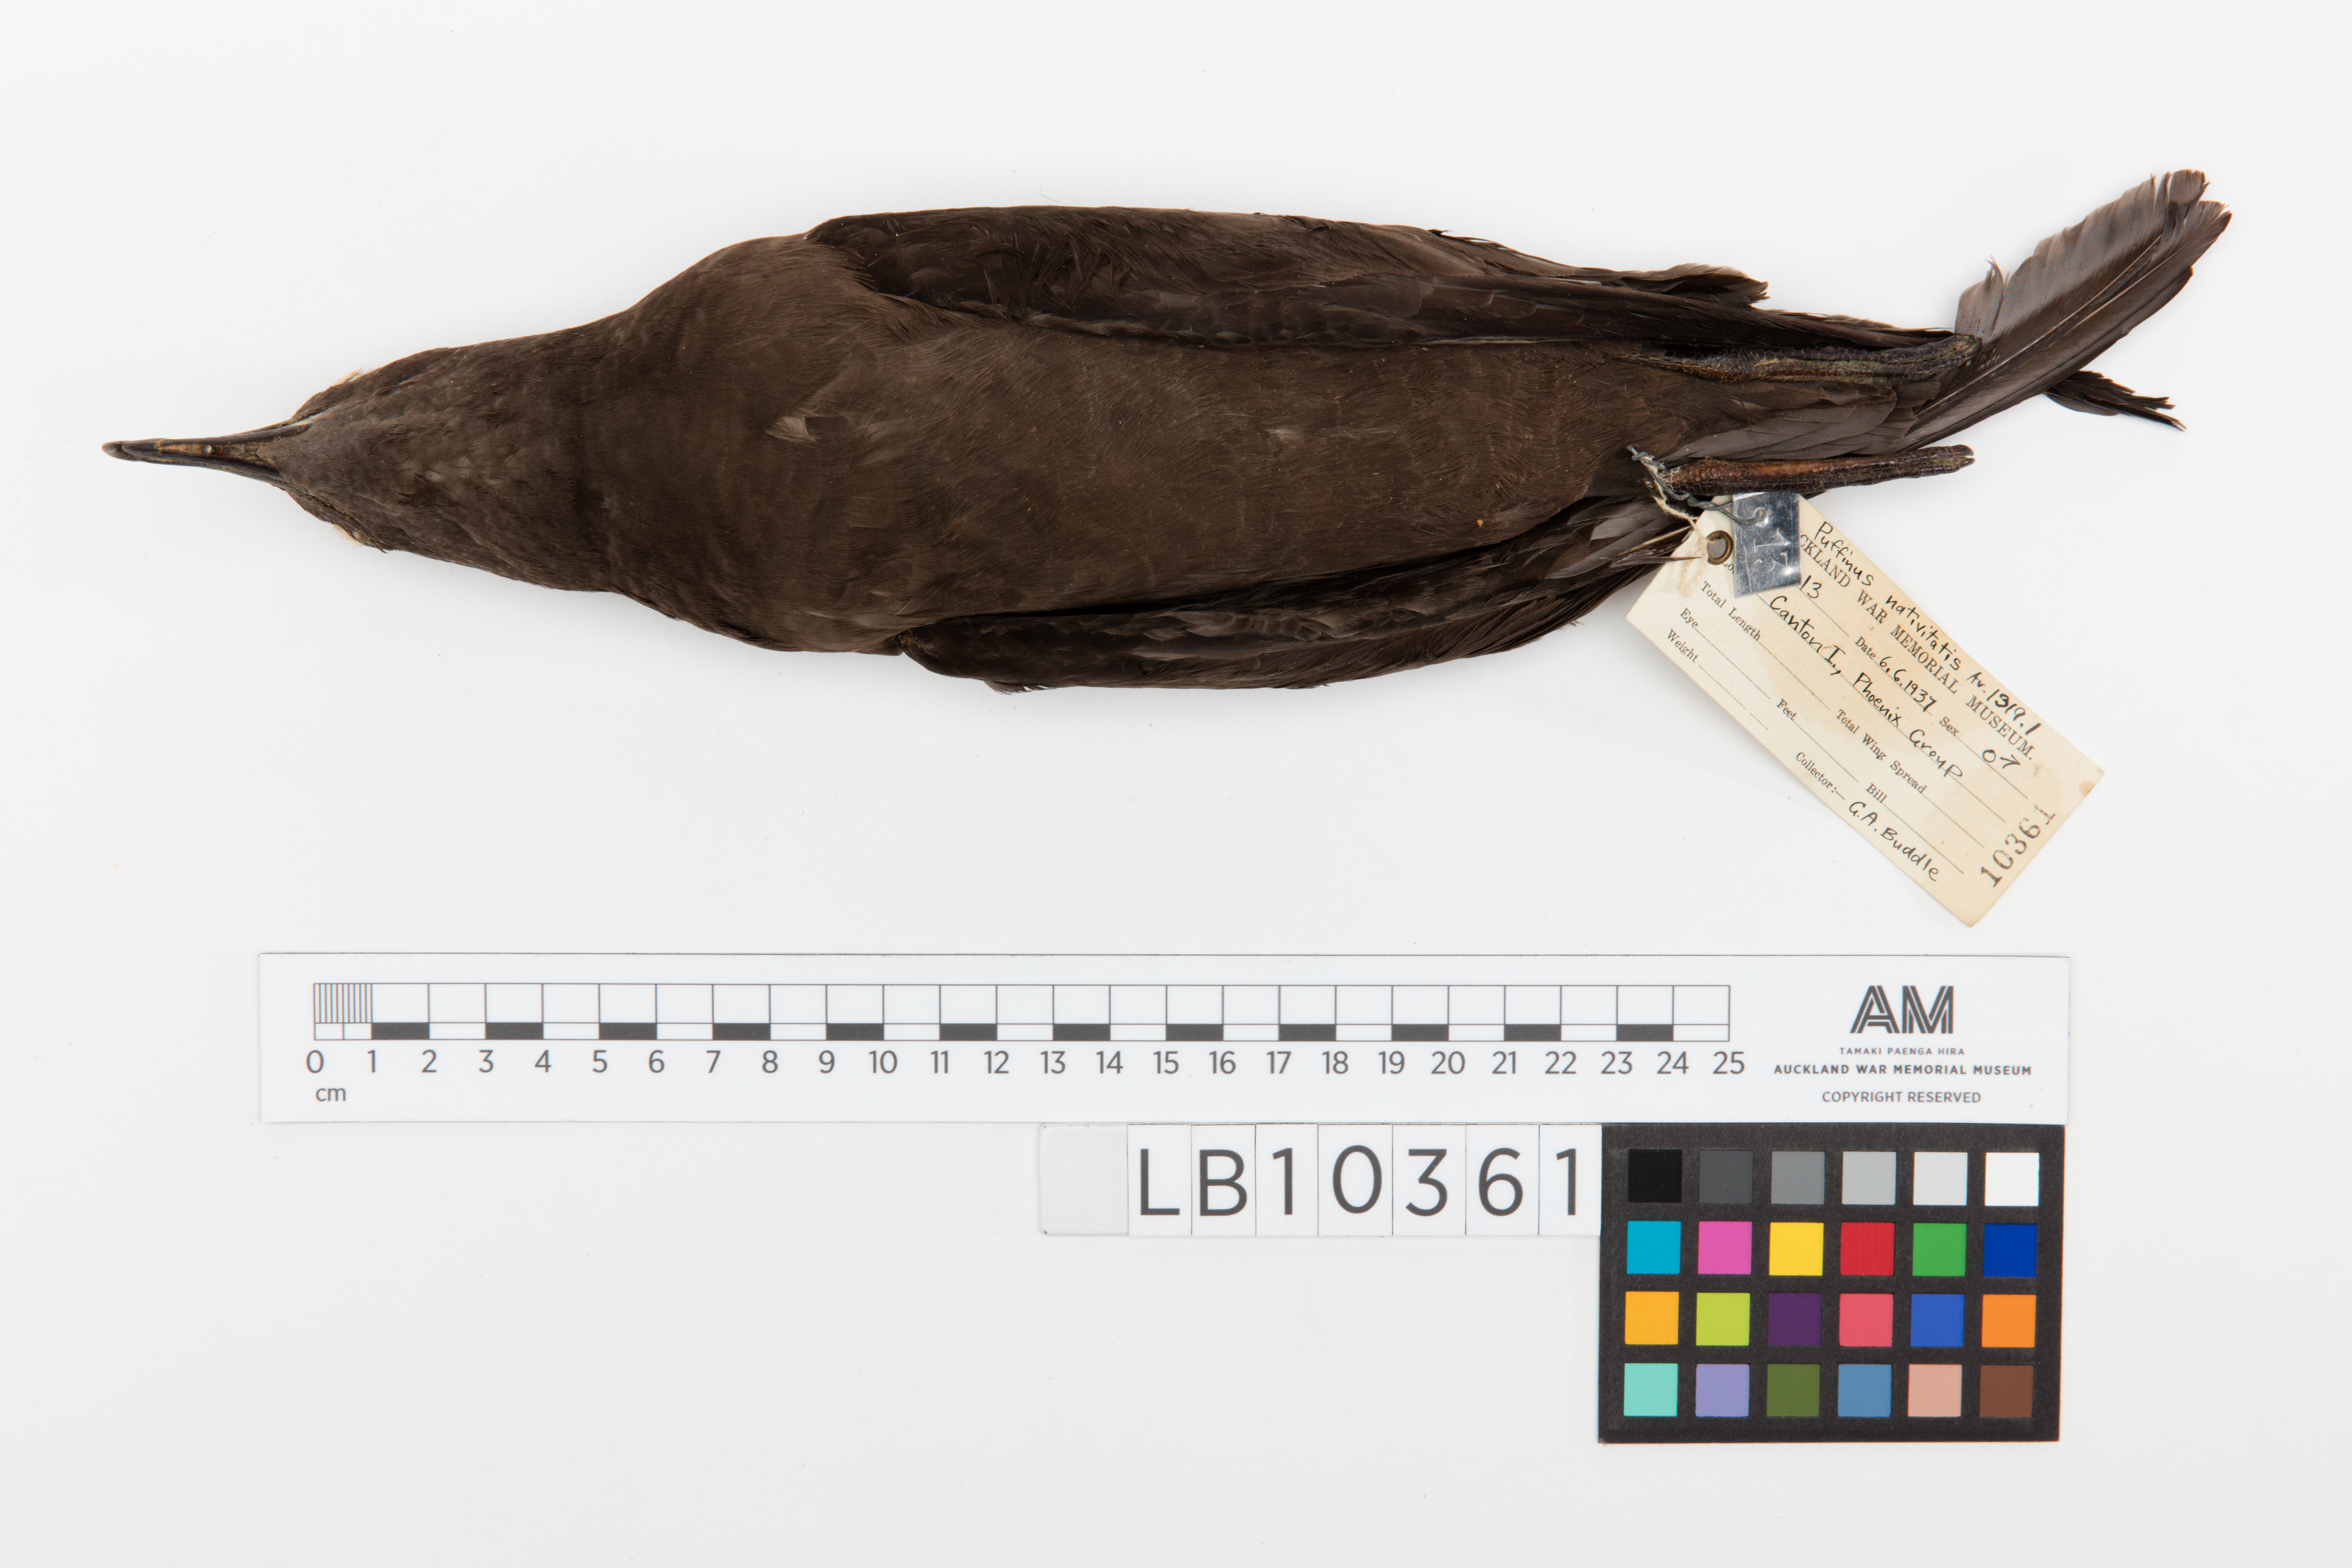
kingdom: Animalia
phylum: Chordata
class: Aves
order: Procellariiformes
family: Procellariidae
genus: Puffinus
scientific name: Puffinus nativitatis
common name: Christmas shearwater
